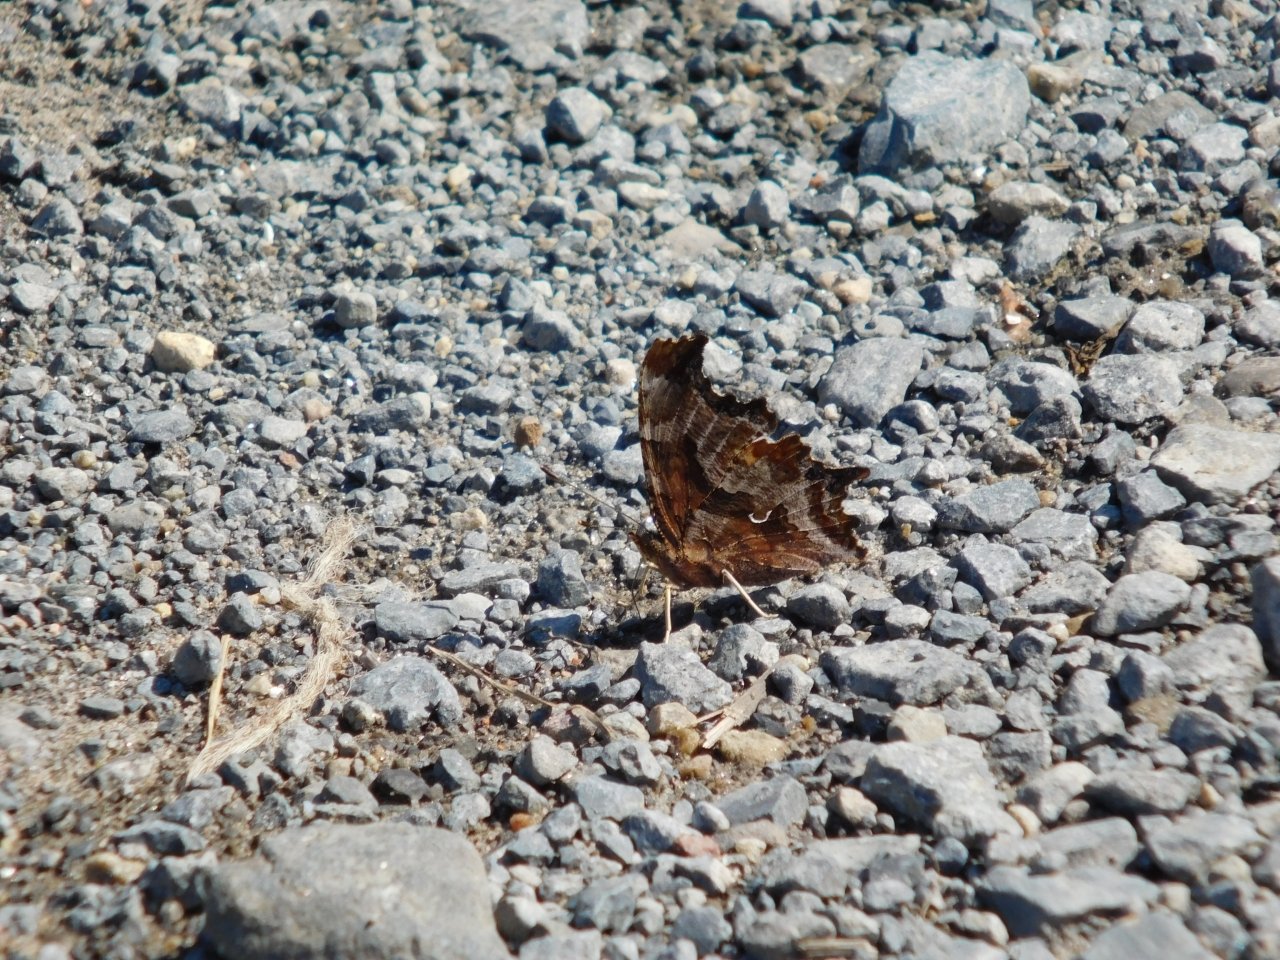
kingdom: Animalia
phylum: Arthropoda
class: Insecta
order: Lepidoptera
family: Nymphalidae
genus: Phyciodes
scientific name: Phyciodes tharos
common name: Northern Crescent
